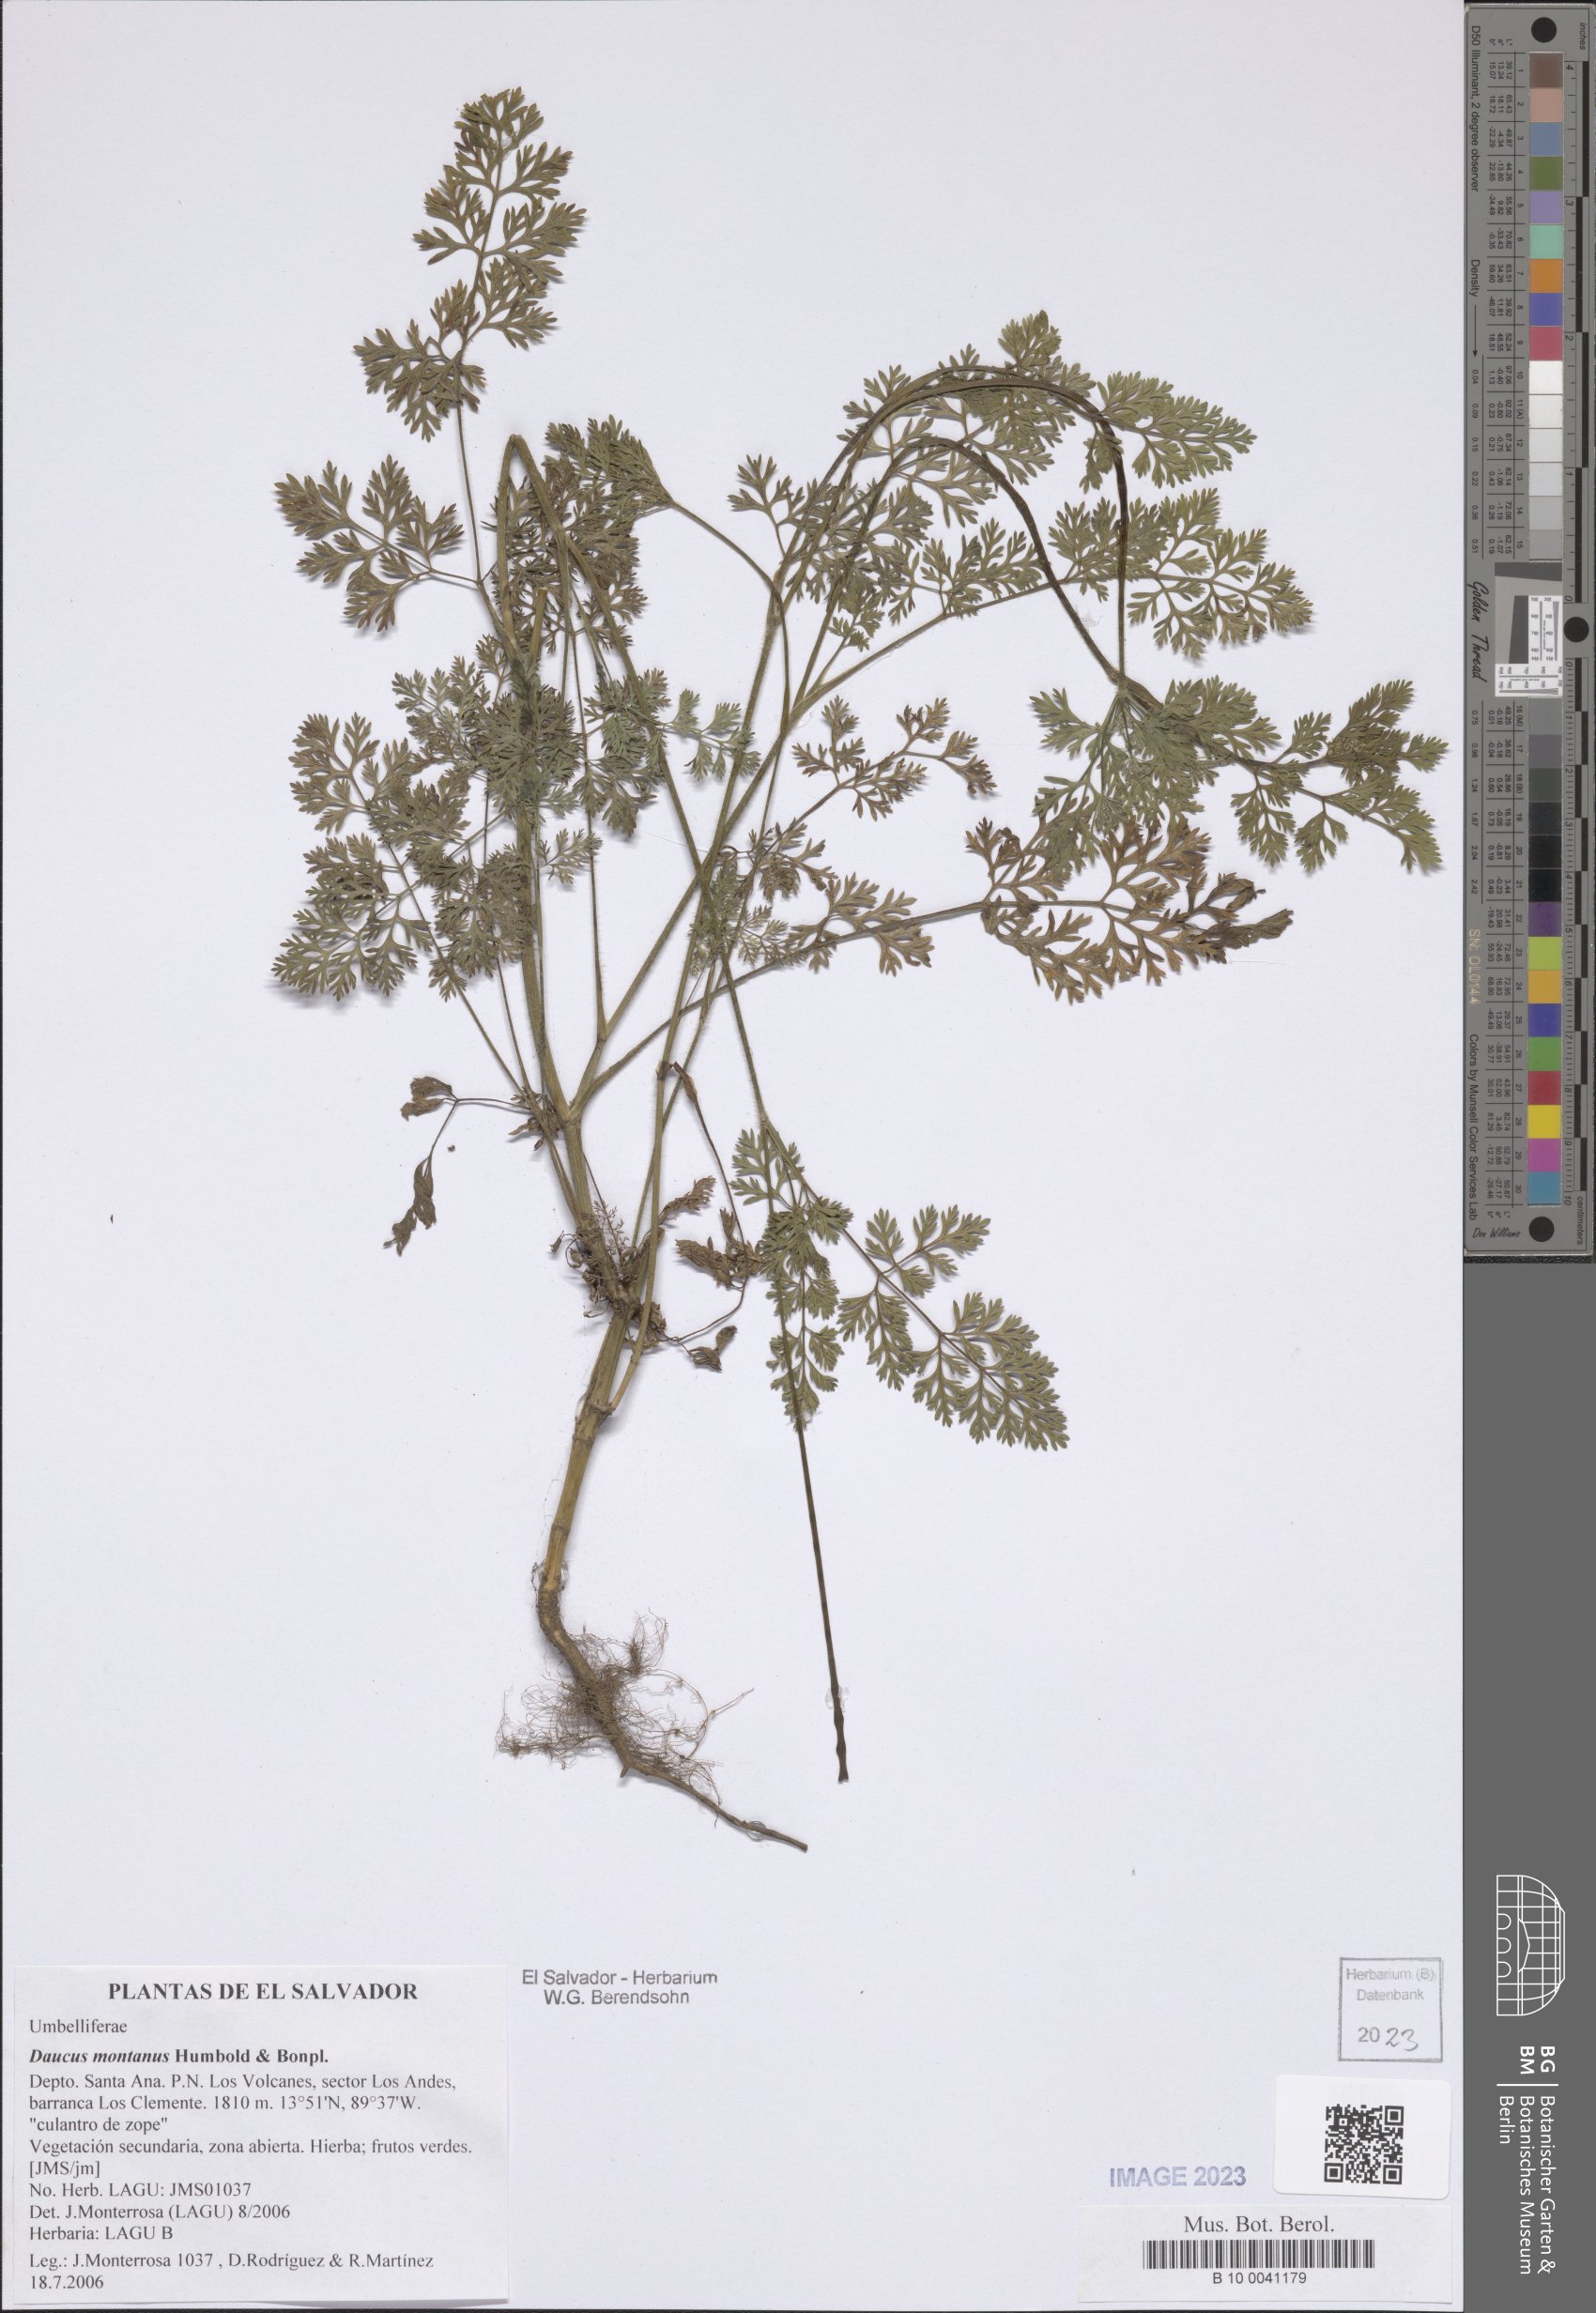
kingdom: Plantae
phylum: Tracheophyta
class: Magnoliopsida
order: Apiales
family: Apiaceae
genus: Daucus
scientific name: Daucus montanus
